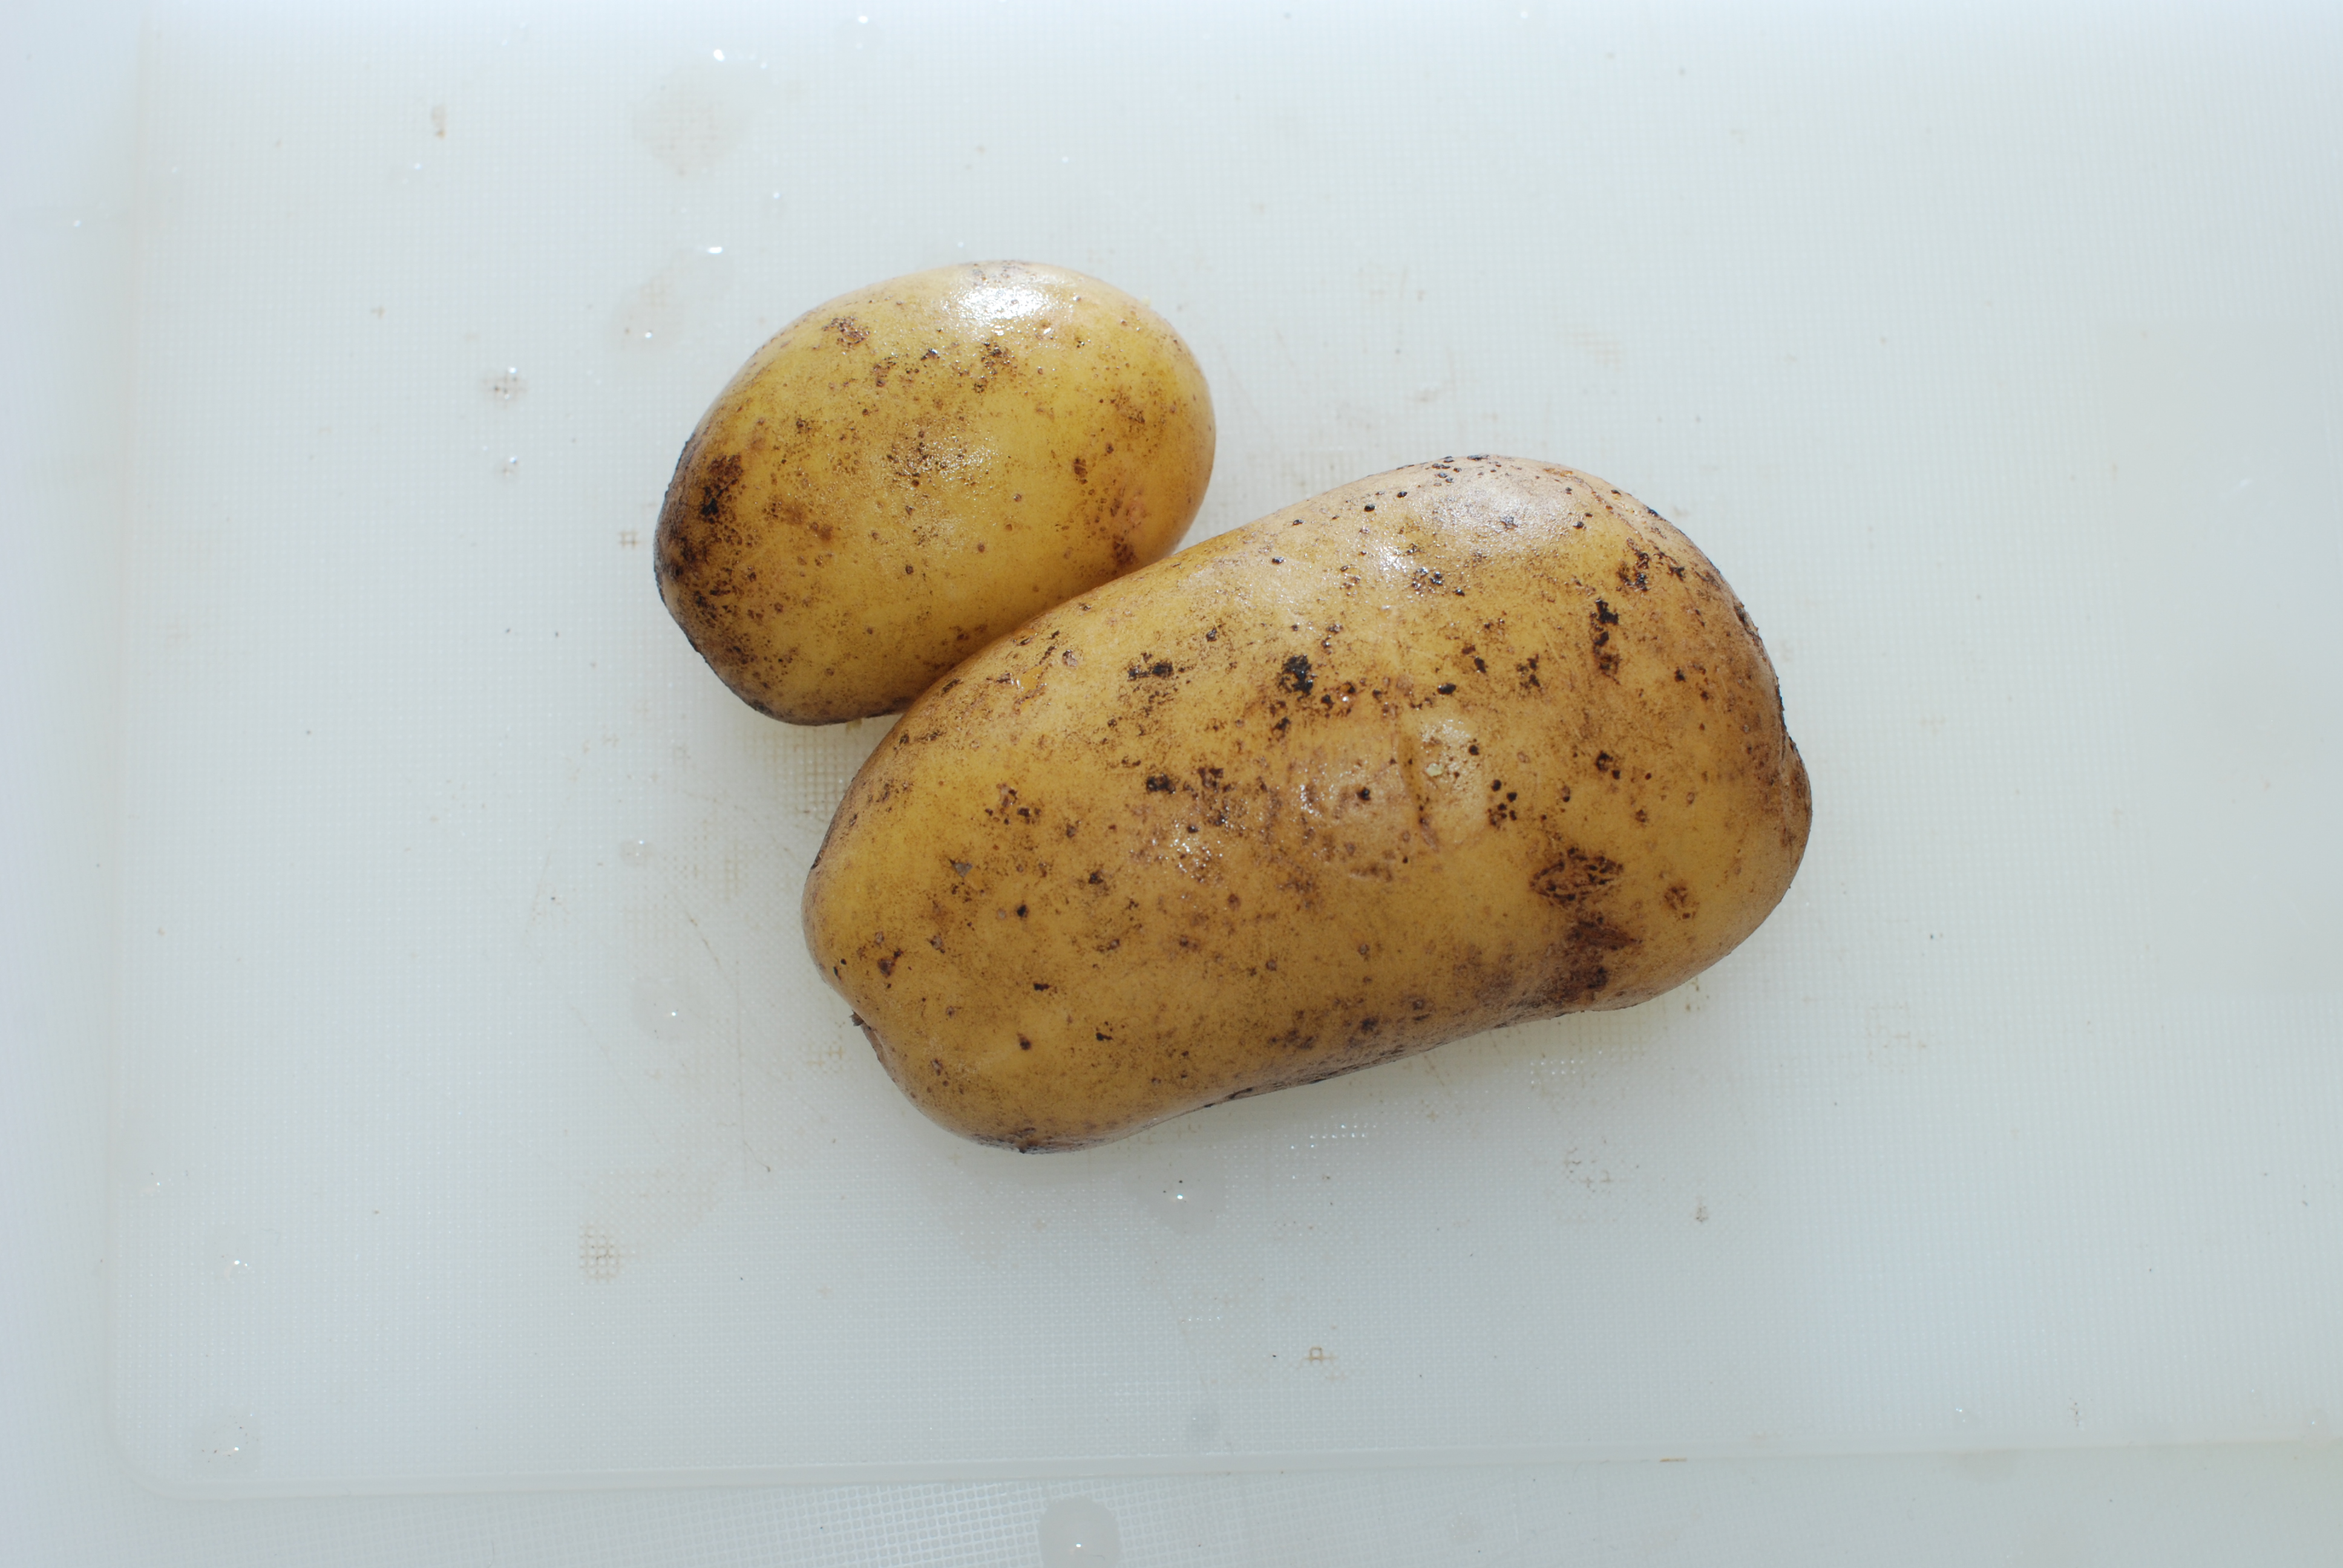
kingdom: Plantae
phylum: Tracheophyta
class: Magnoliopsida
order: Solanales
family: Solanaceae
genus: Solanum
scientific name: Solanum tuberosum
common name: Potato
